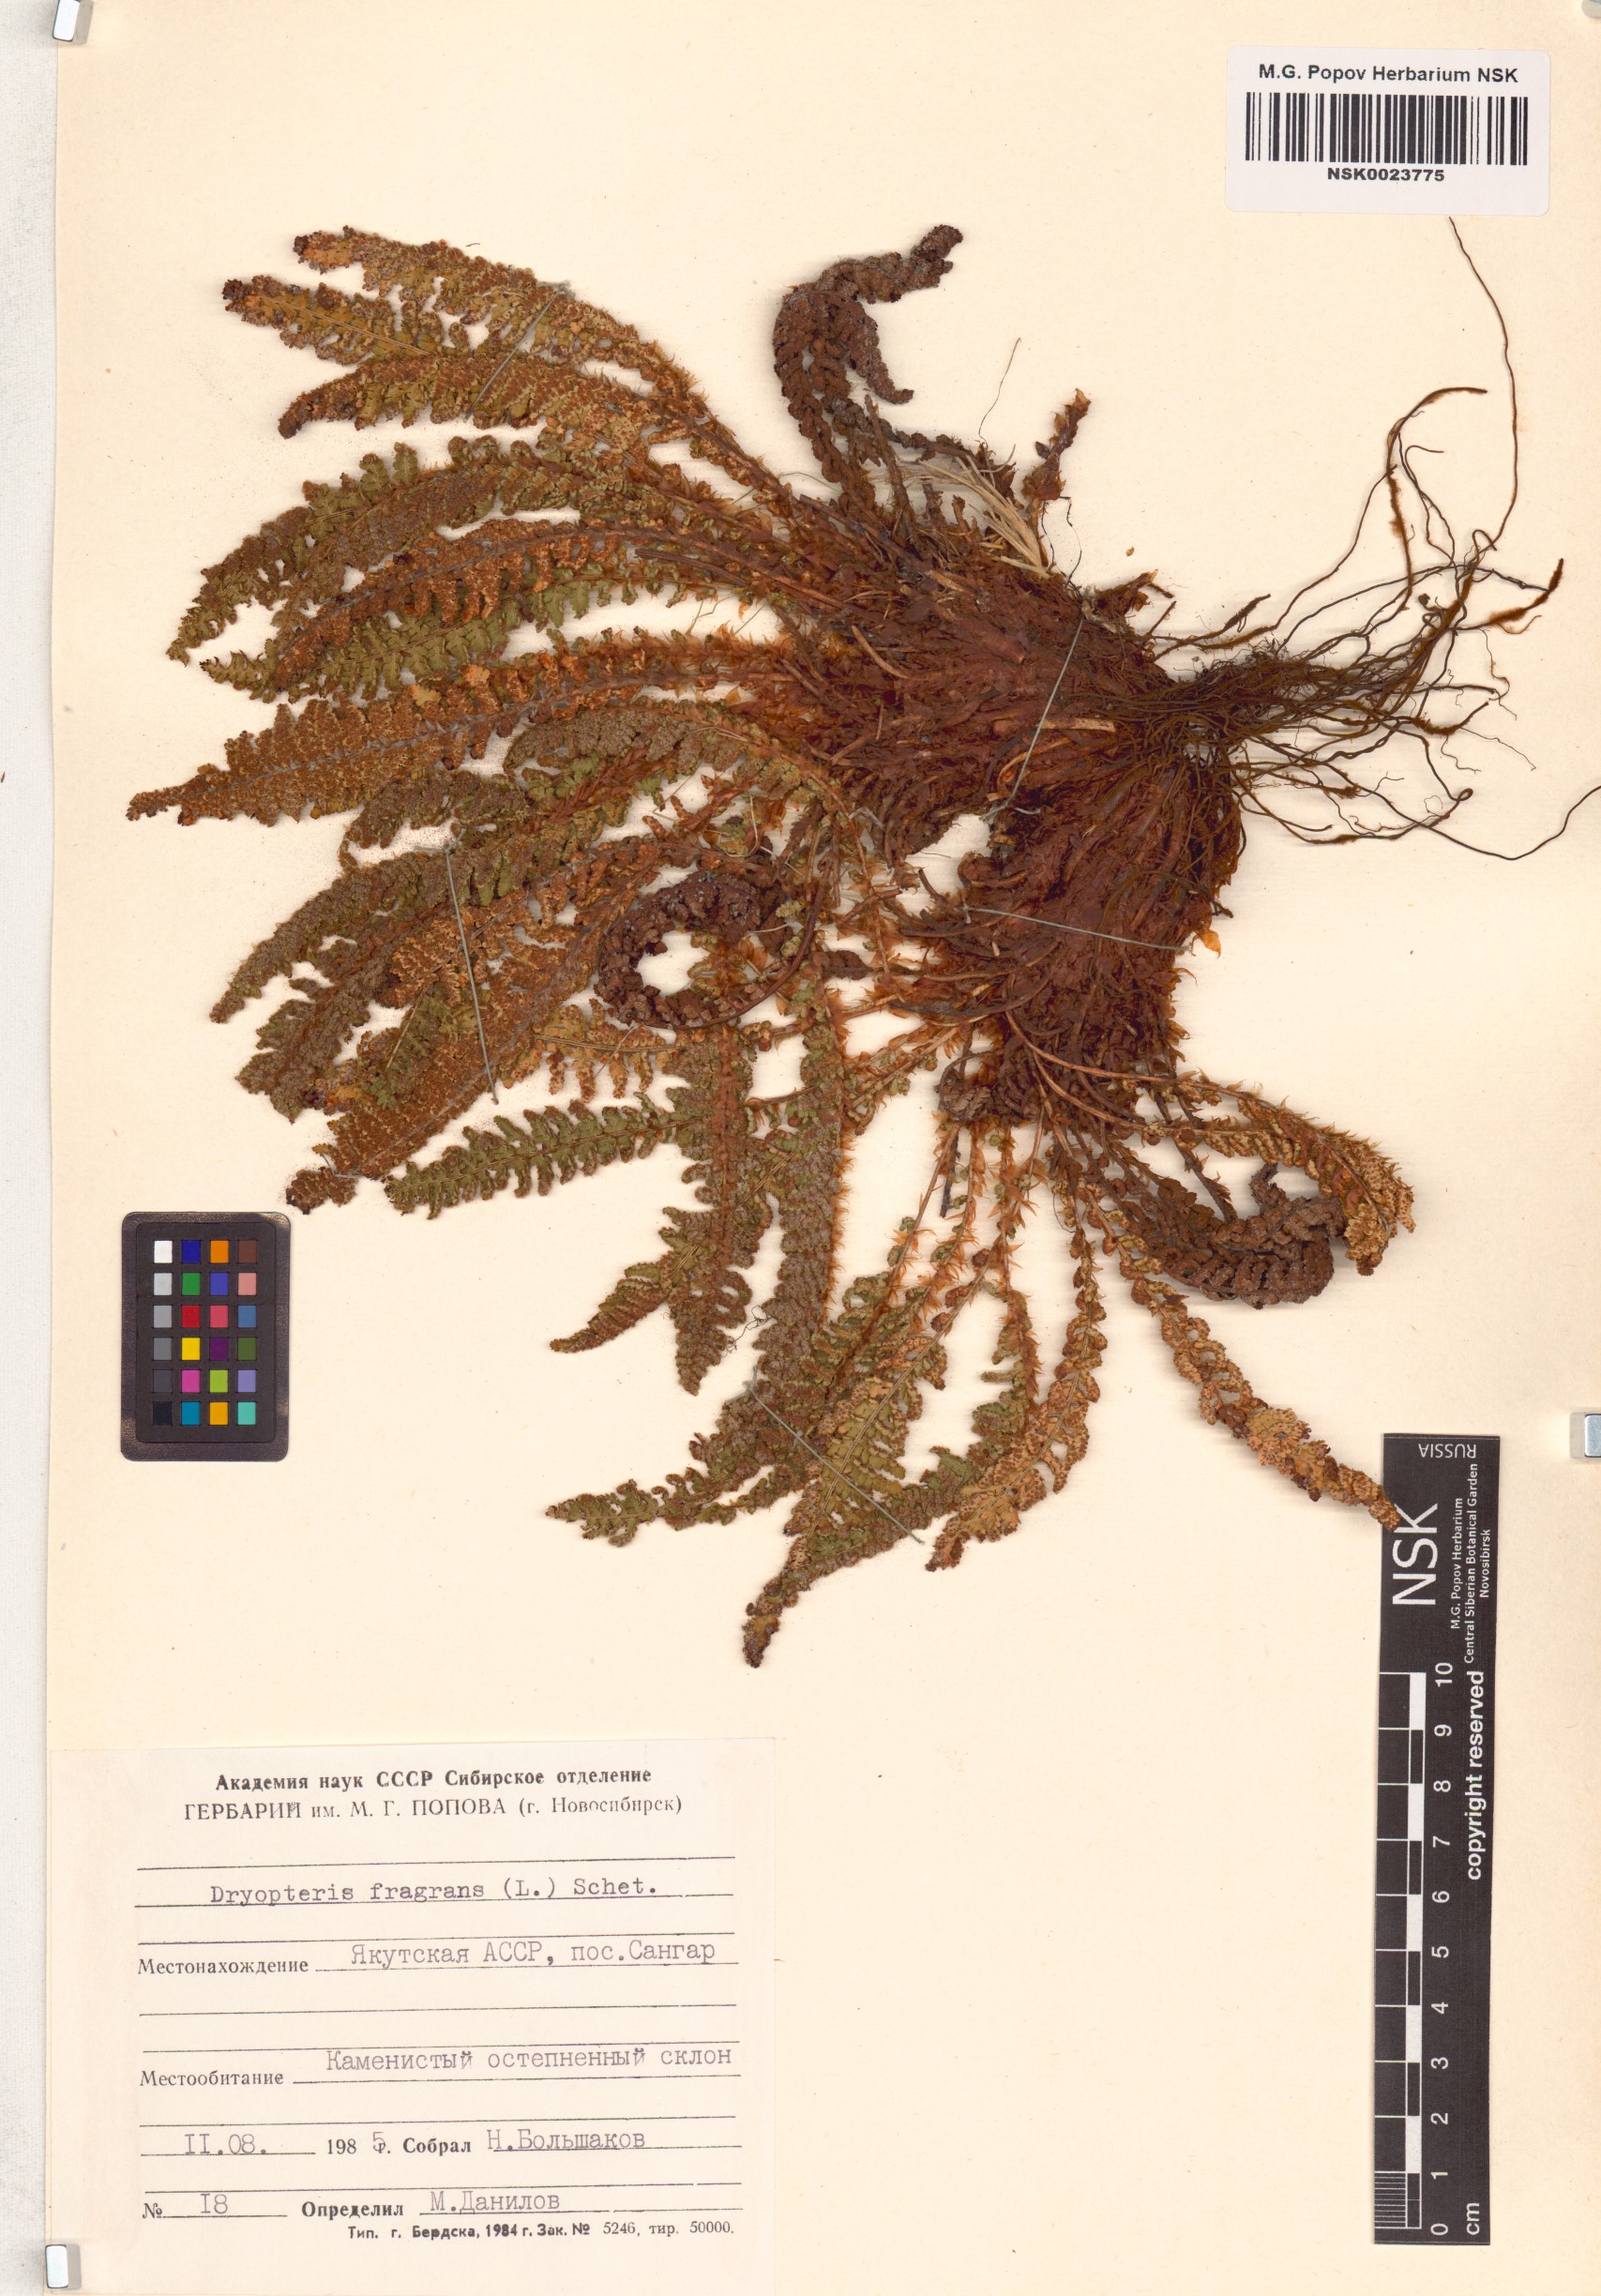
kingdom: Plantae
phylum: Tracheophyta
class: Polypodiopsida
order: Polypodiales
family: Dryopteridaceae
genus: Dryopteris
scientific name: Dryopteris fragrans
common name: Fragrant wood fern
